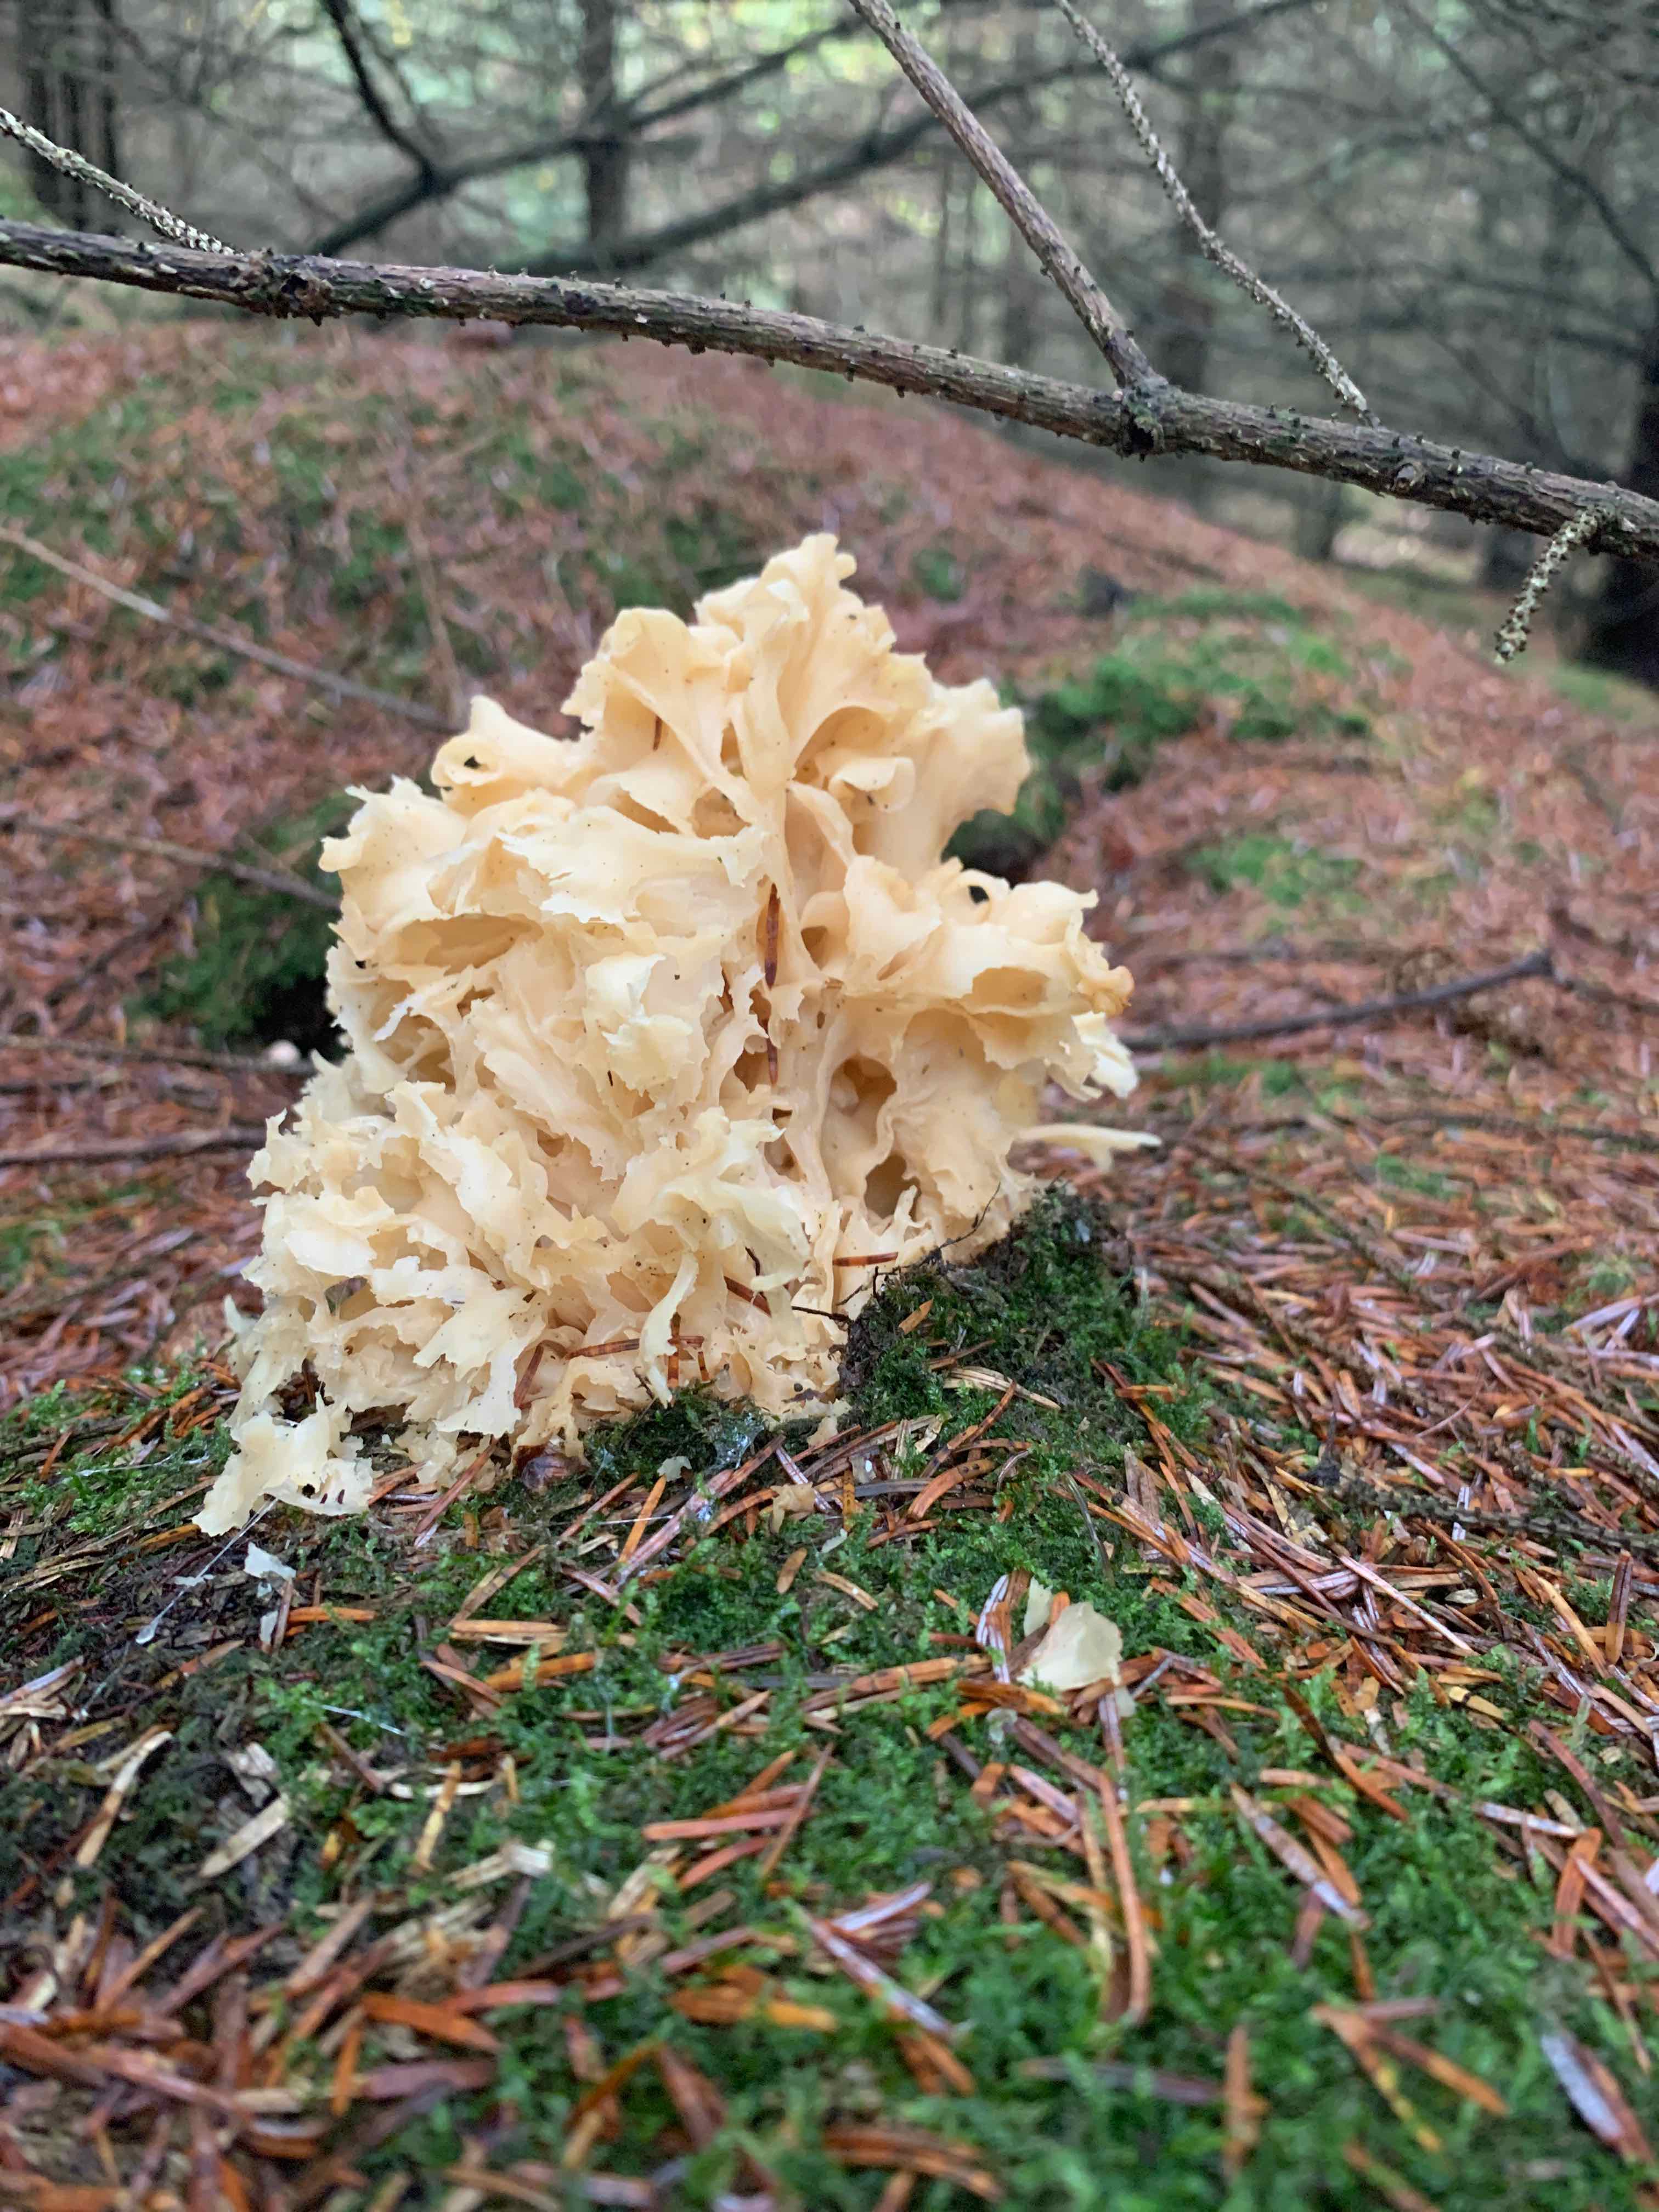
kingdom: Fungi
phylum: Basidiomycota
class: Agaricomycetes
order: Polyporales
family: Sparassidaceae
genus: Sparassis
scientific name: Sparassis crispa
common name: kruset blomkålssvamp
